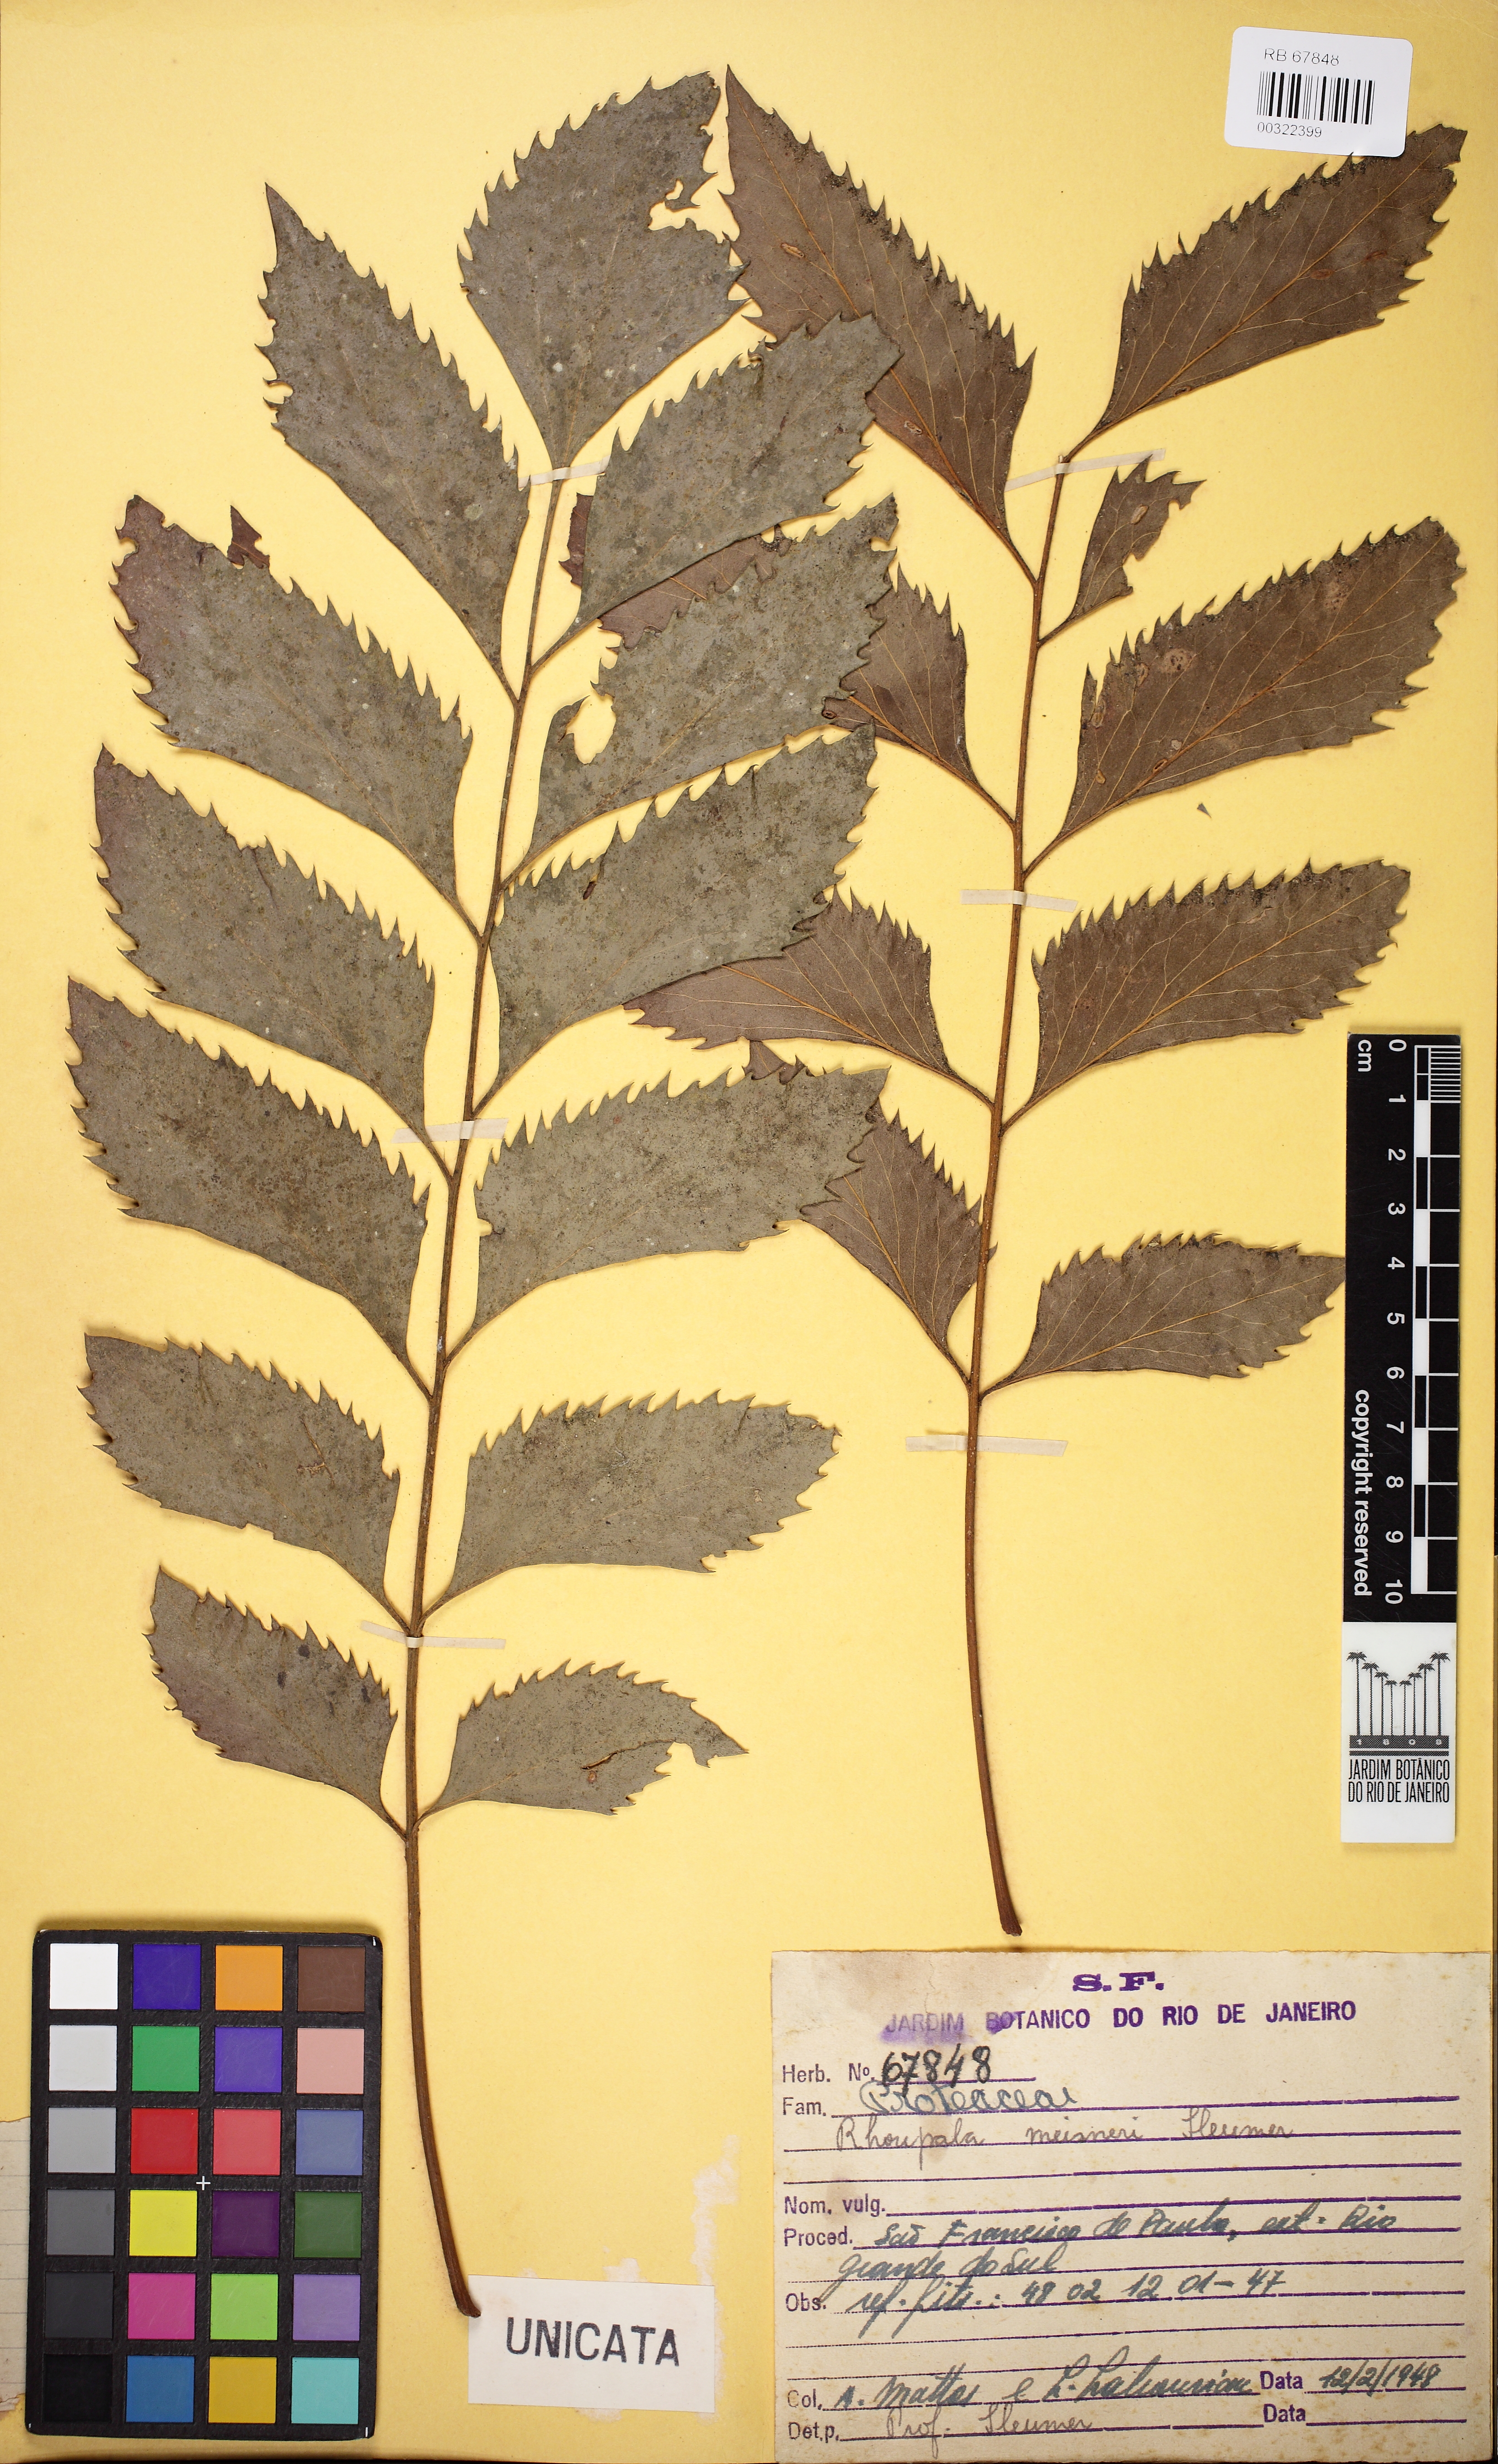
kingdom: Plantae
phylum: Tracheophyta
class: Magnoliopsida
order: Proteales
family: Proteaceae
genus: Roupala
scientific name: Roupala meisneri
